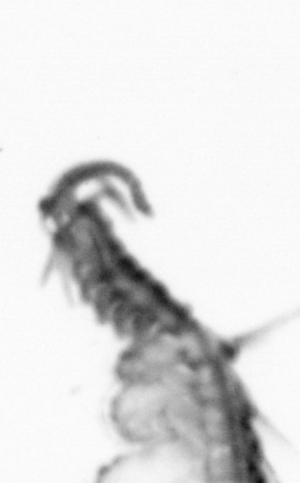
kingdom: Animalia
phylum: Annelida
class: Polychaeta
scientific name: Polychaeta
